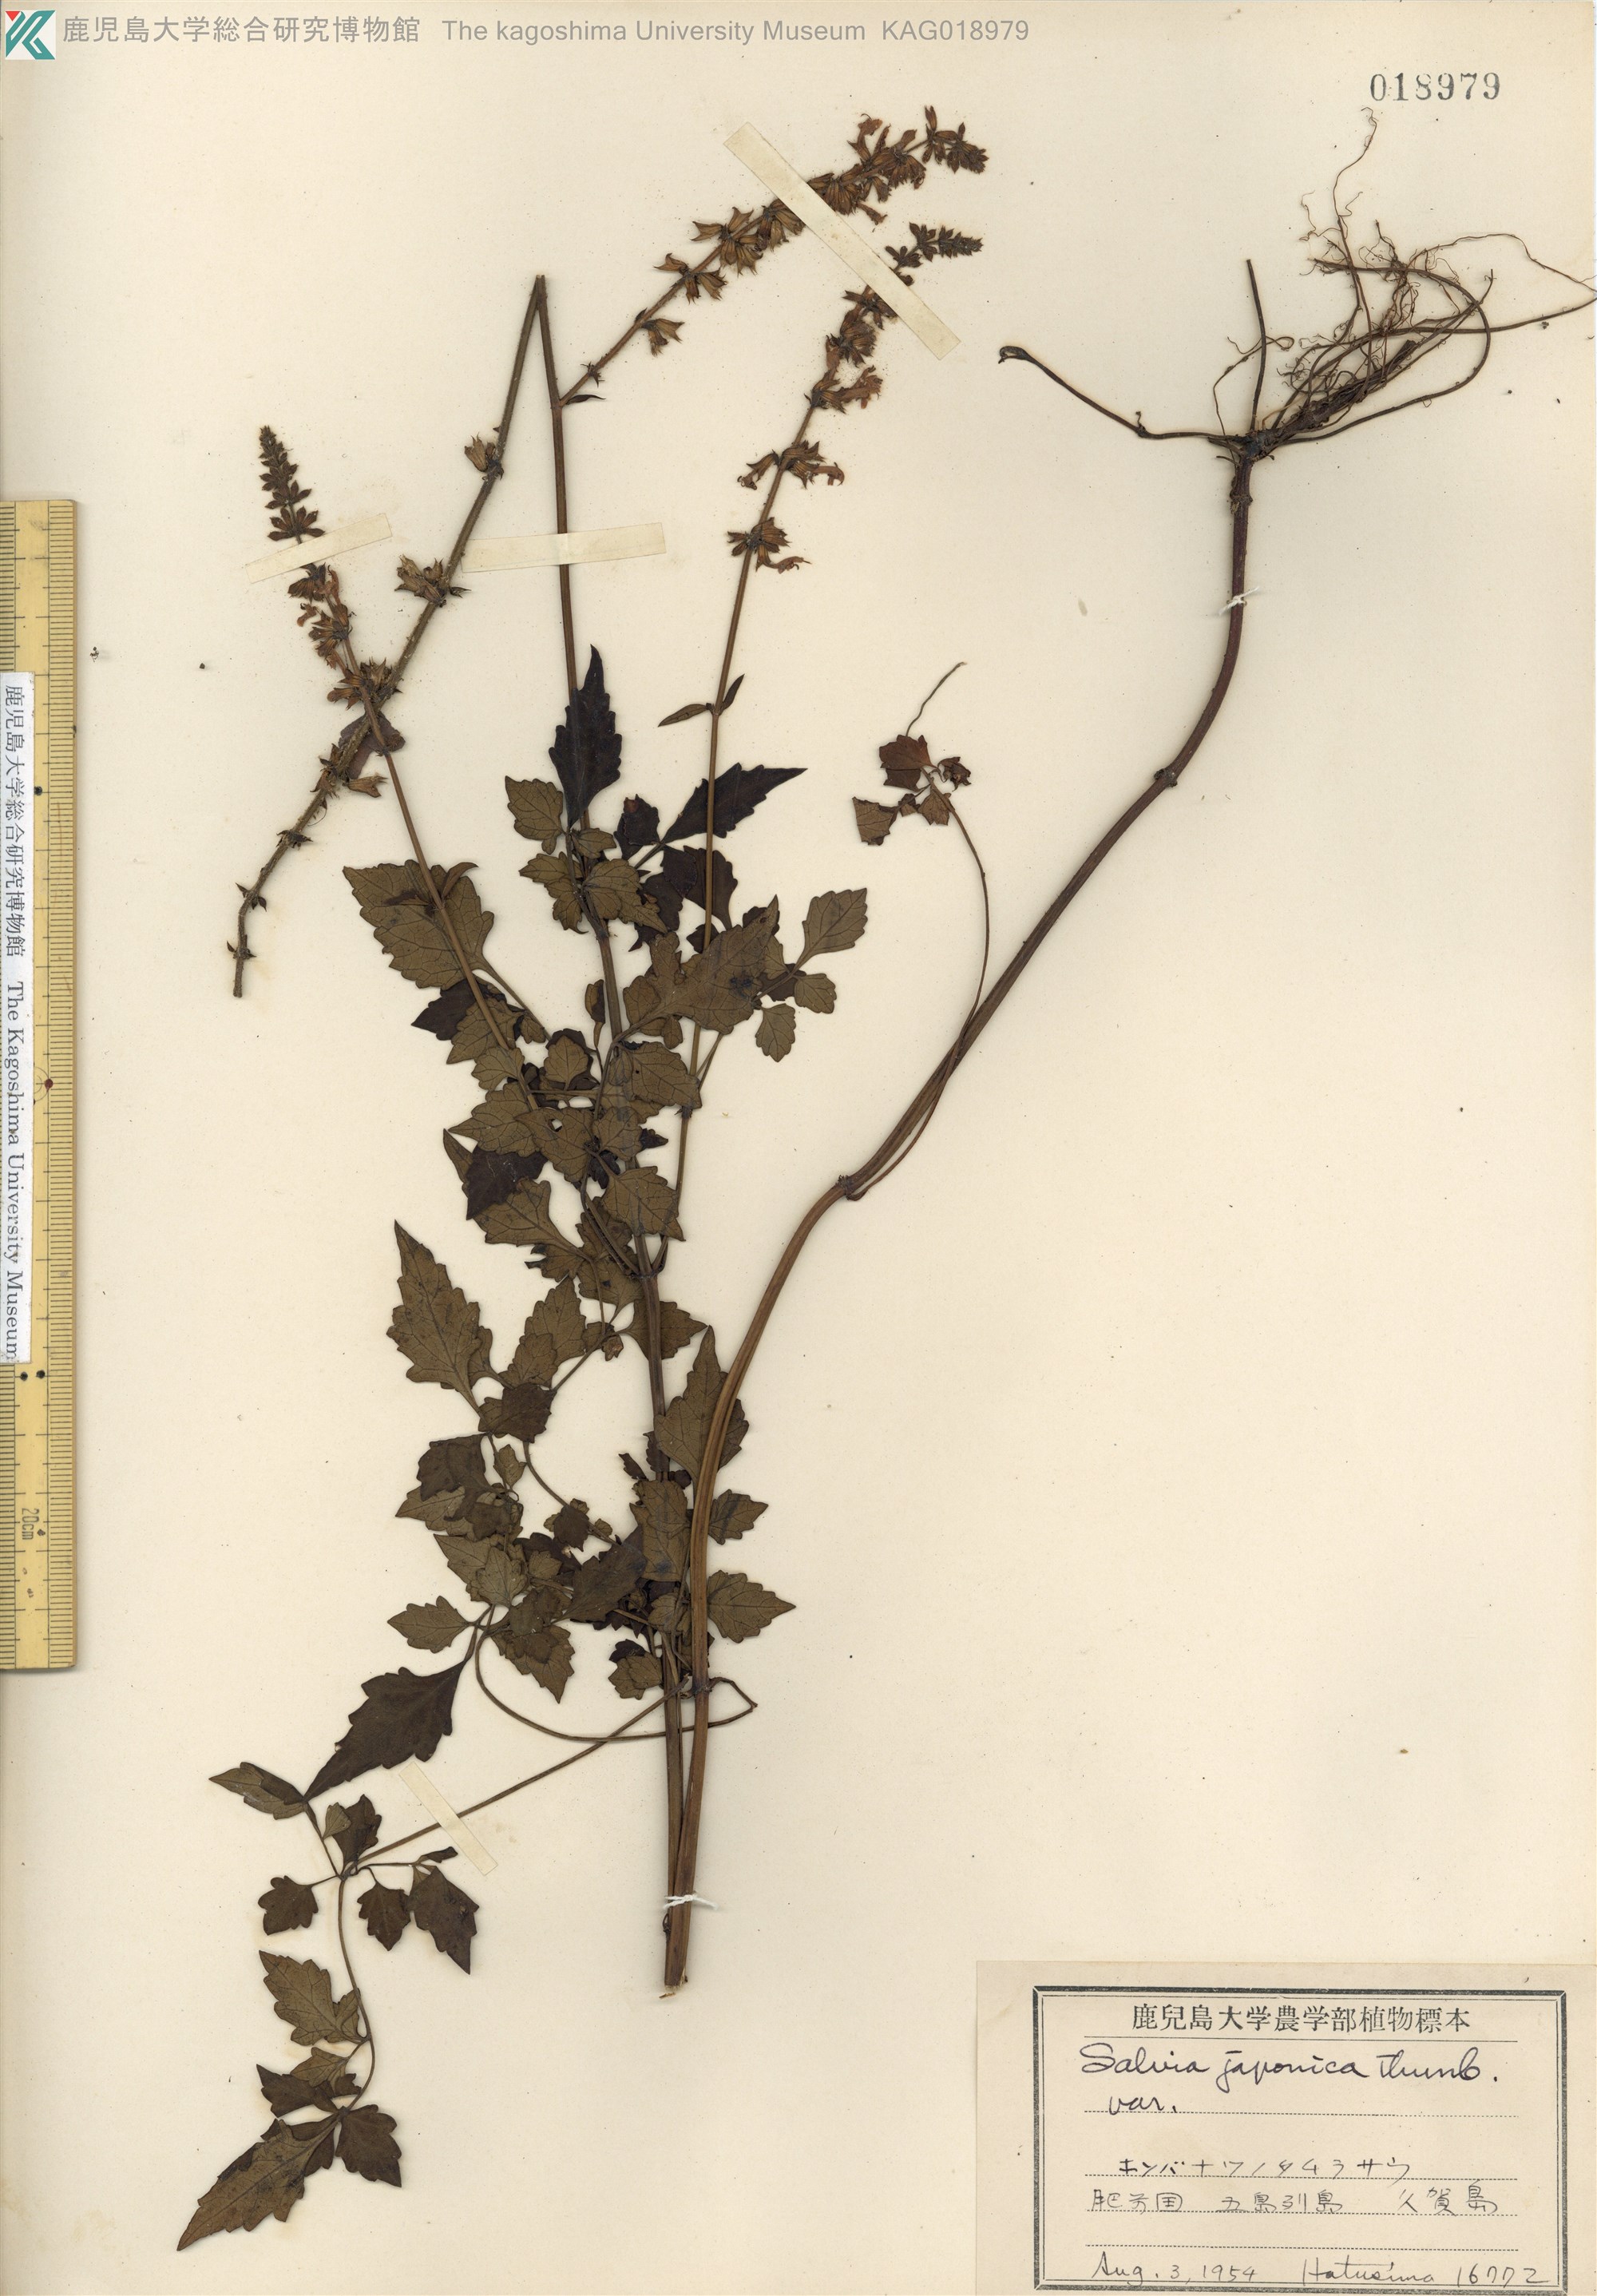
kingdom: Plantae
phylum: Tracheophyta
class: Magnoliopsida
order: Lamiales
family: Lamiaceae
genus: Salvia
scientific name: Salvia japonica
